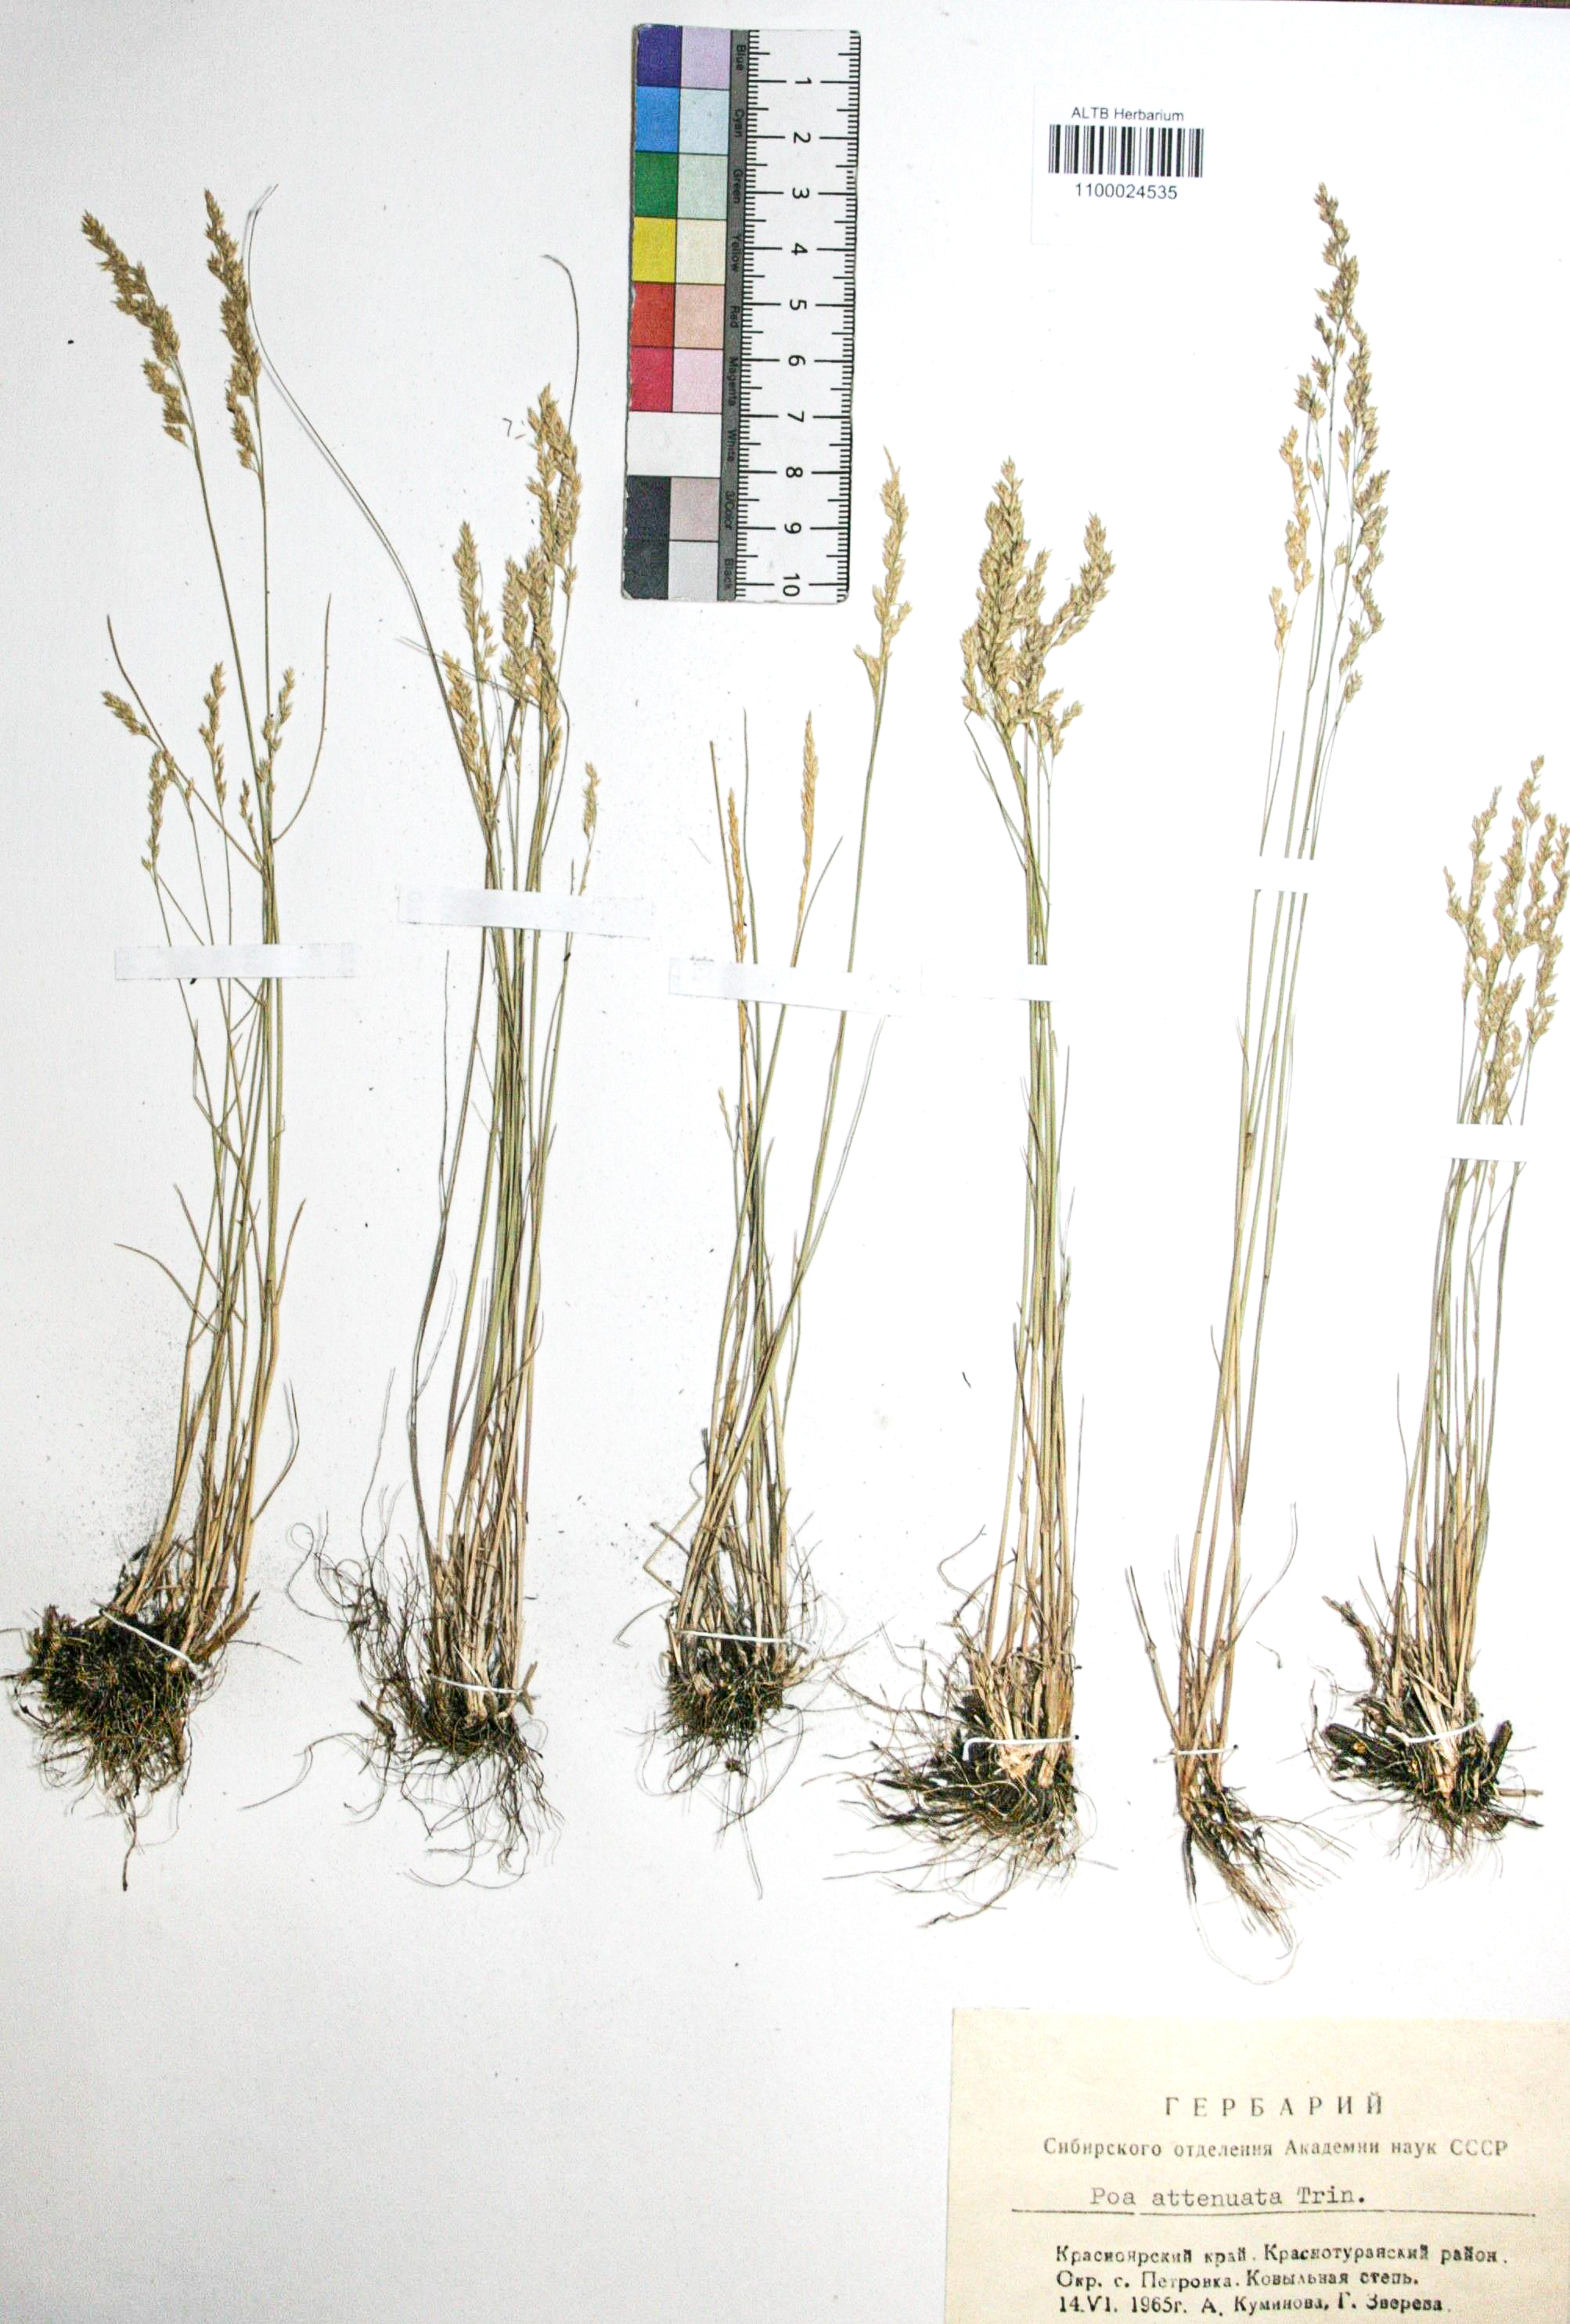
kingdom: Plantae
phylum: Tracheophyta
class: Liliopsida
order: Poales
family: Poaceae
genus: Poa
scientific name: Poa attenuata
